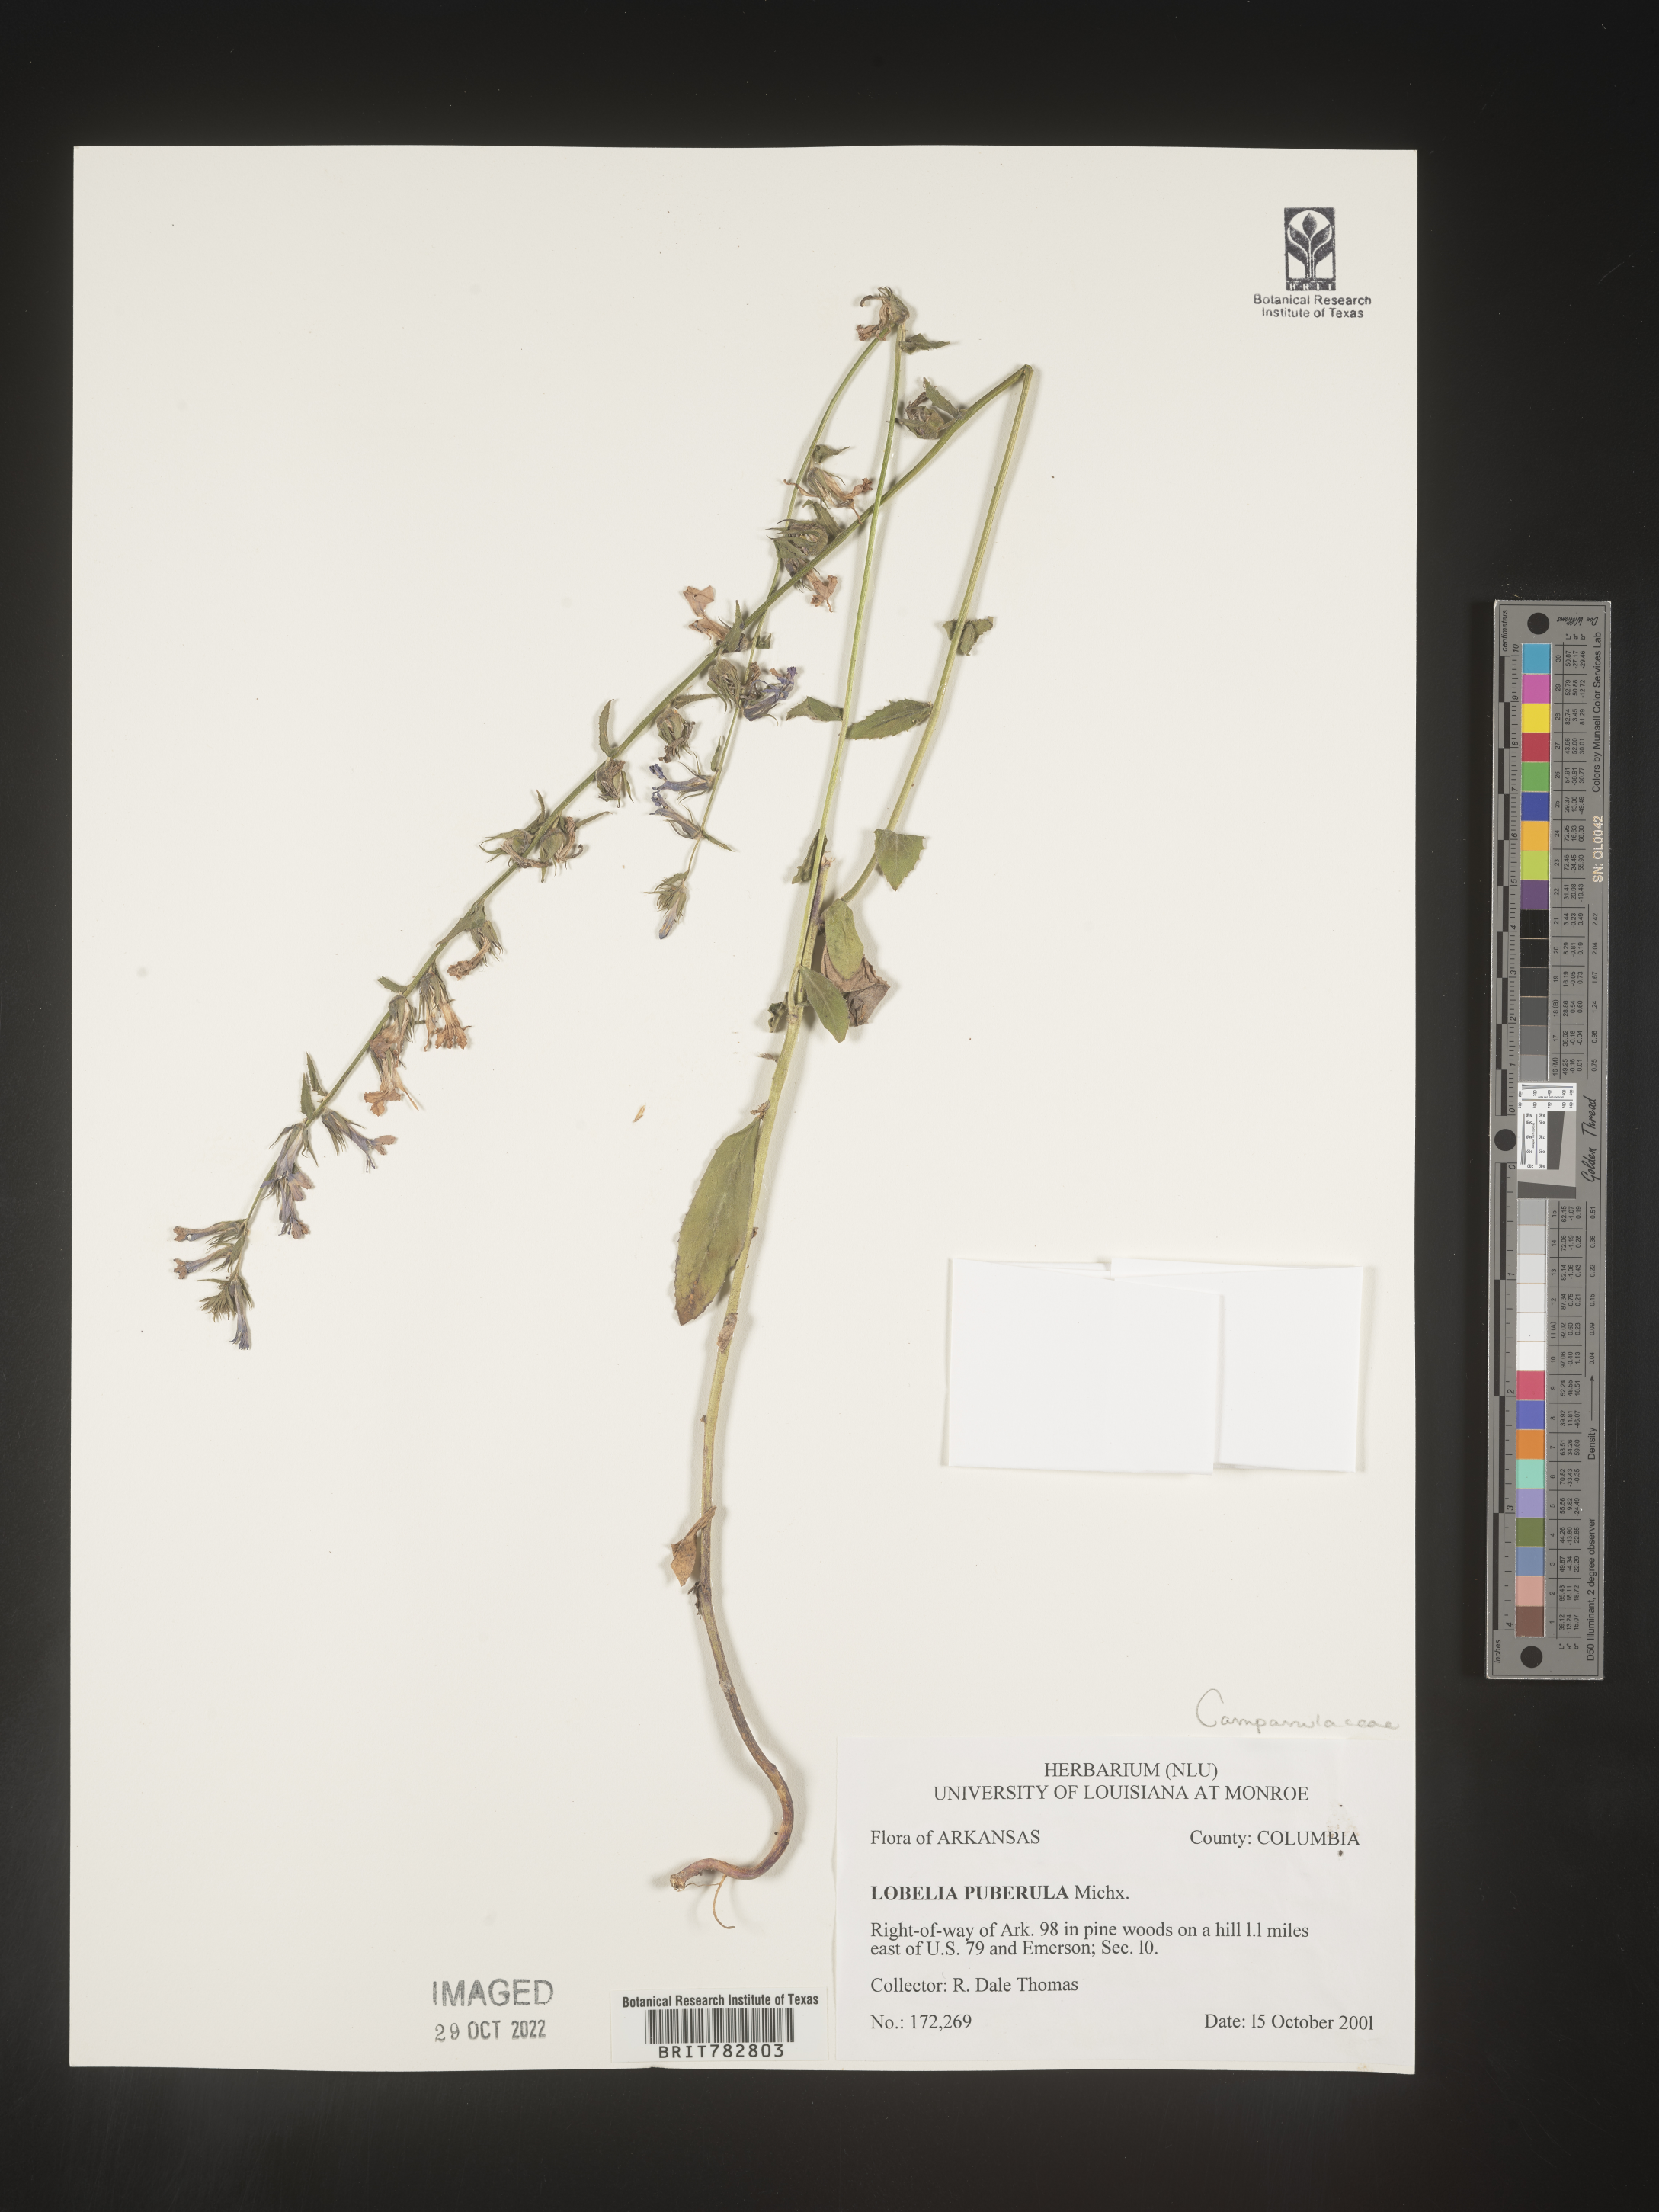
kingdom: Plantae
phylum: Tracheophyta
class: Magnoliopsida
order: Asterales
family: Campanulaceae
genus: Lobelia
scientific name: Lobelia puberula
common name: Purple dewdrop
